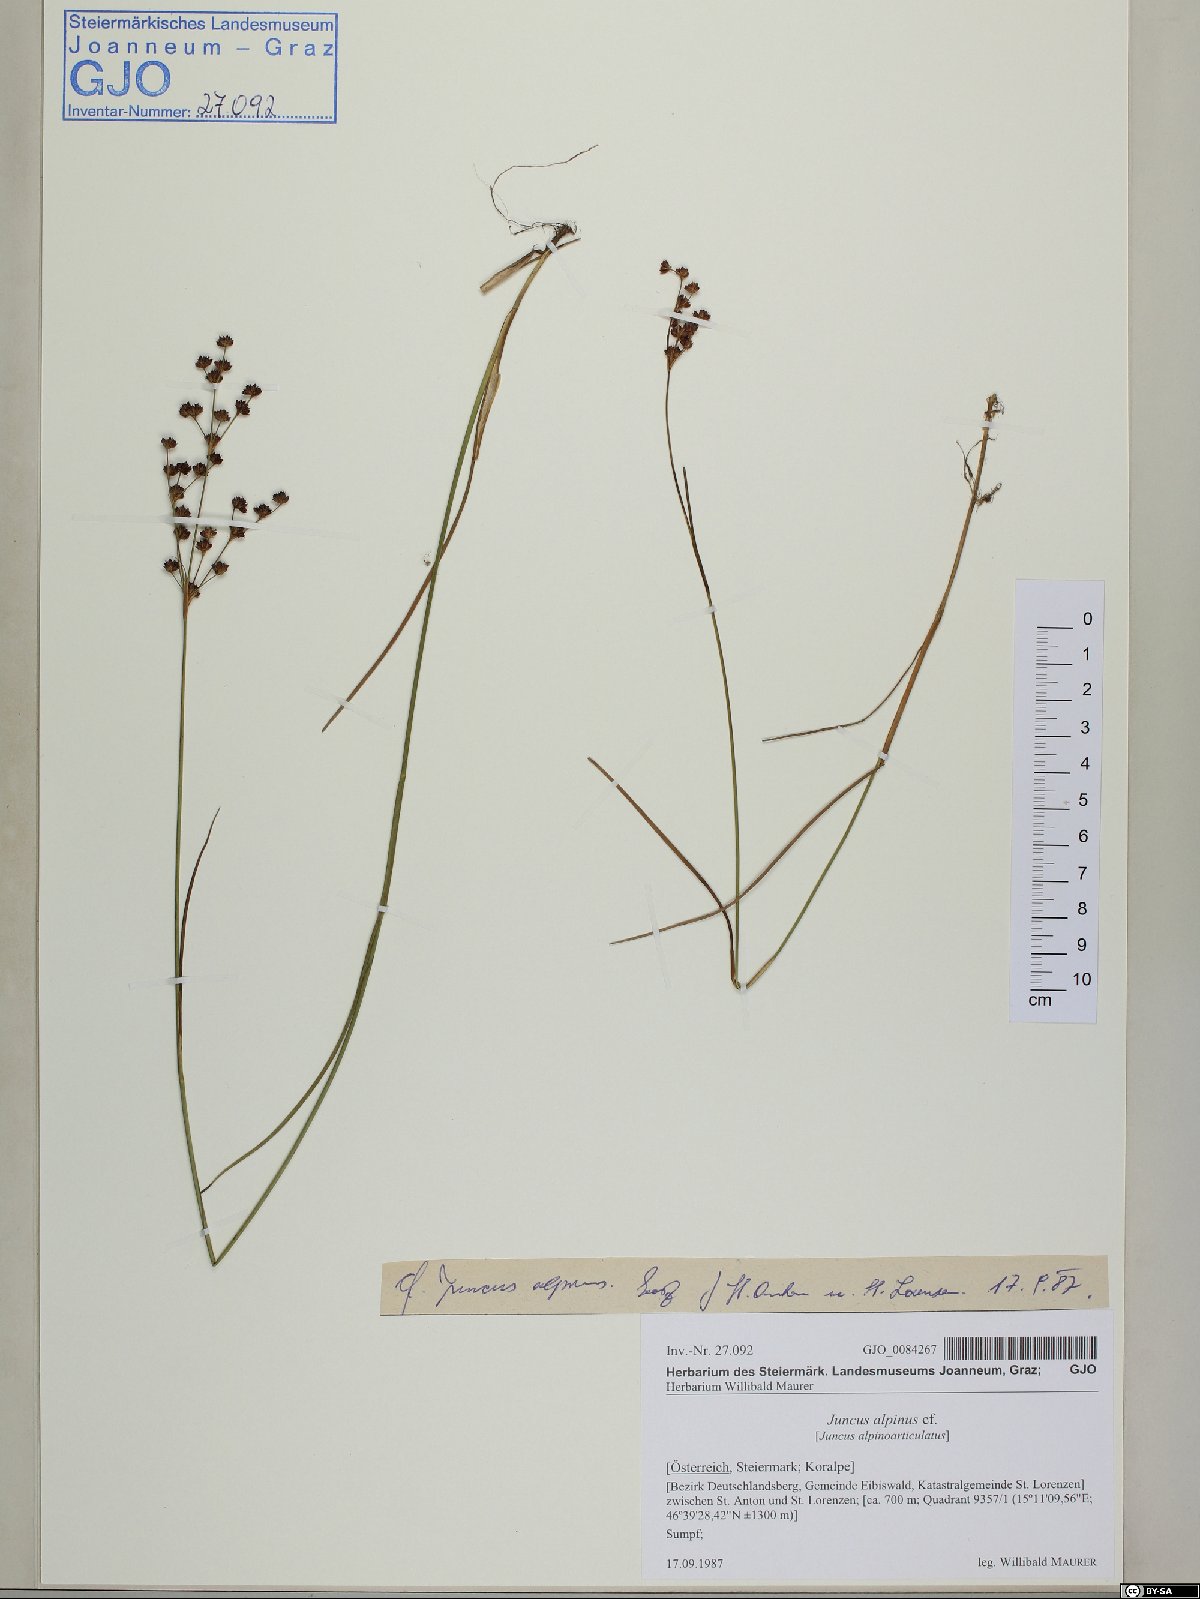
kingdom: Plantae
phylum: Tracheophyta
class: Liliopsida
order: Poales
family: Juncaceae
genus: Juncus
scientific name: Juncus alpinoarticulatus
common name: Alpine rush
